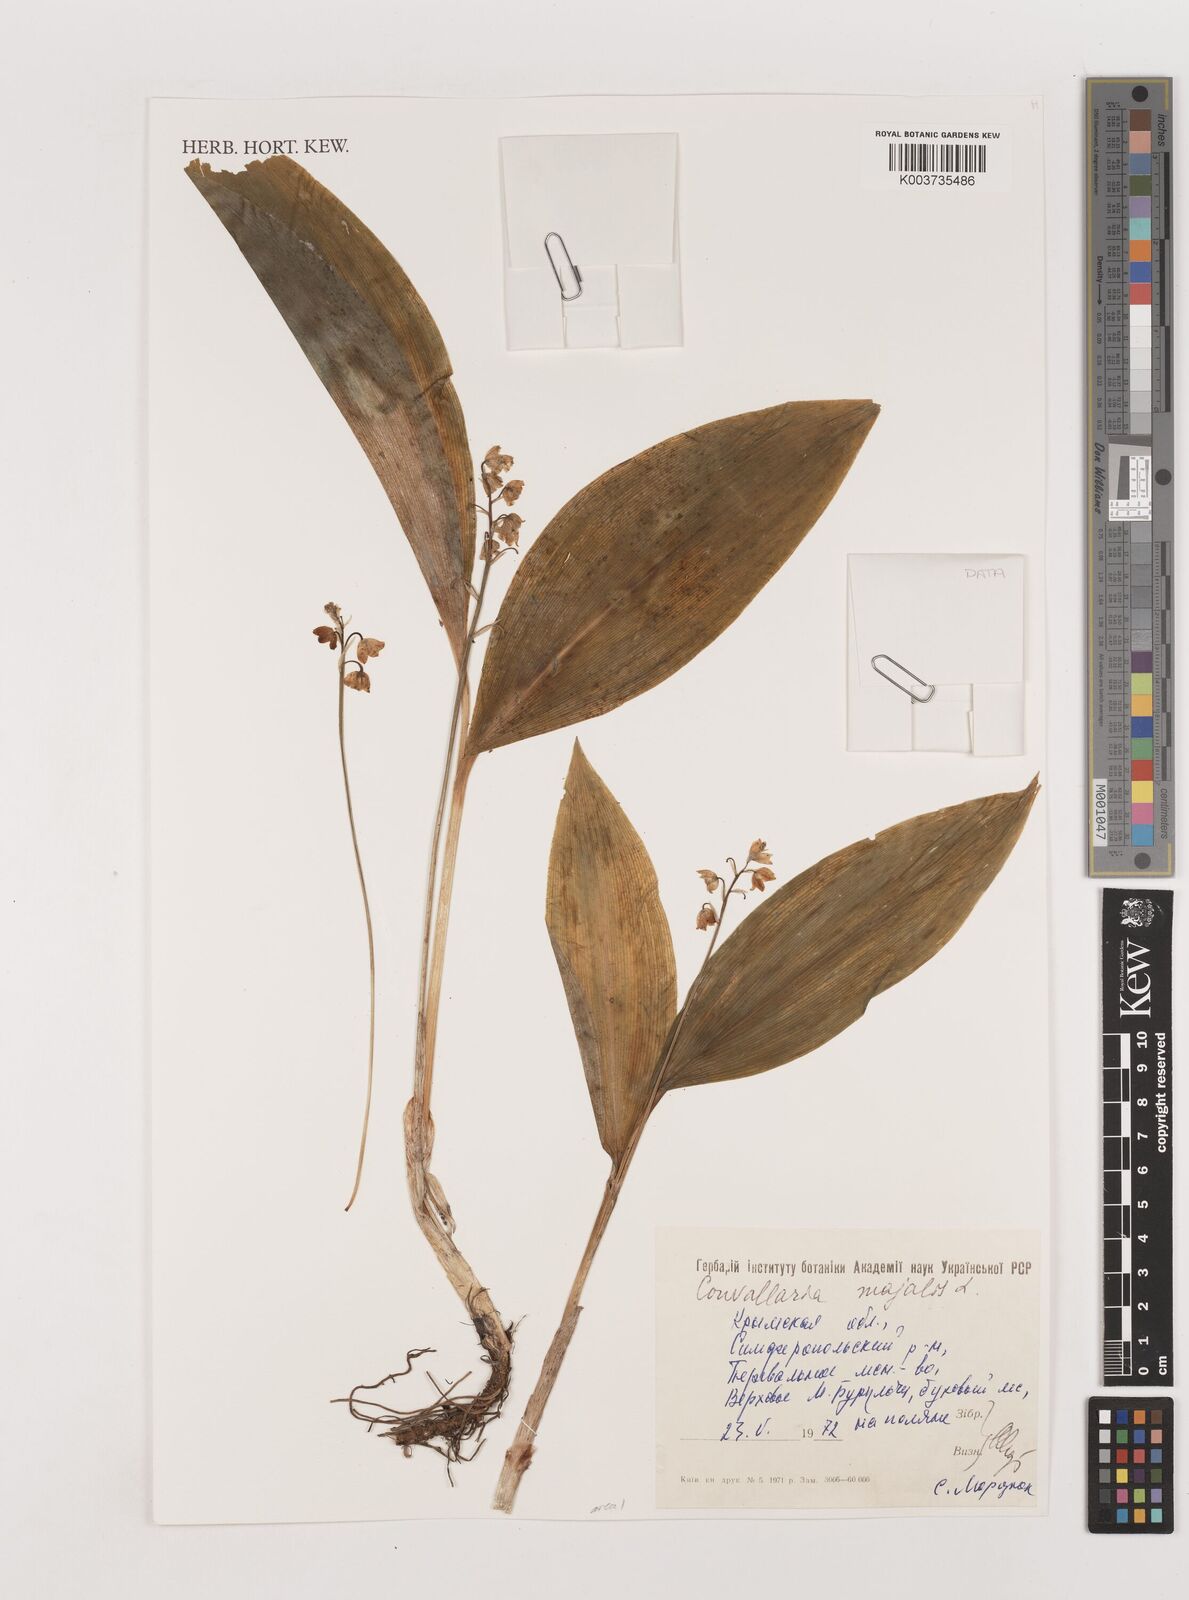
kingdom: Plantae
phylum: Tracheophyta
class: Liliopsida
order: Asparagales
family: Asparagaceae
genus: Convallaria
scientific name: Convallaria majalis
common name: Lily-of-the-valley
